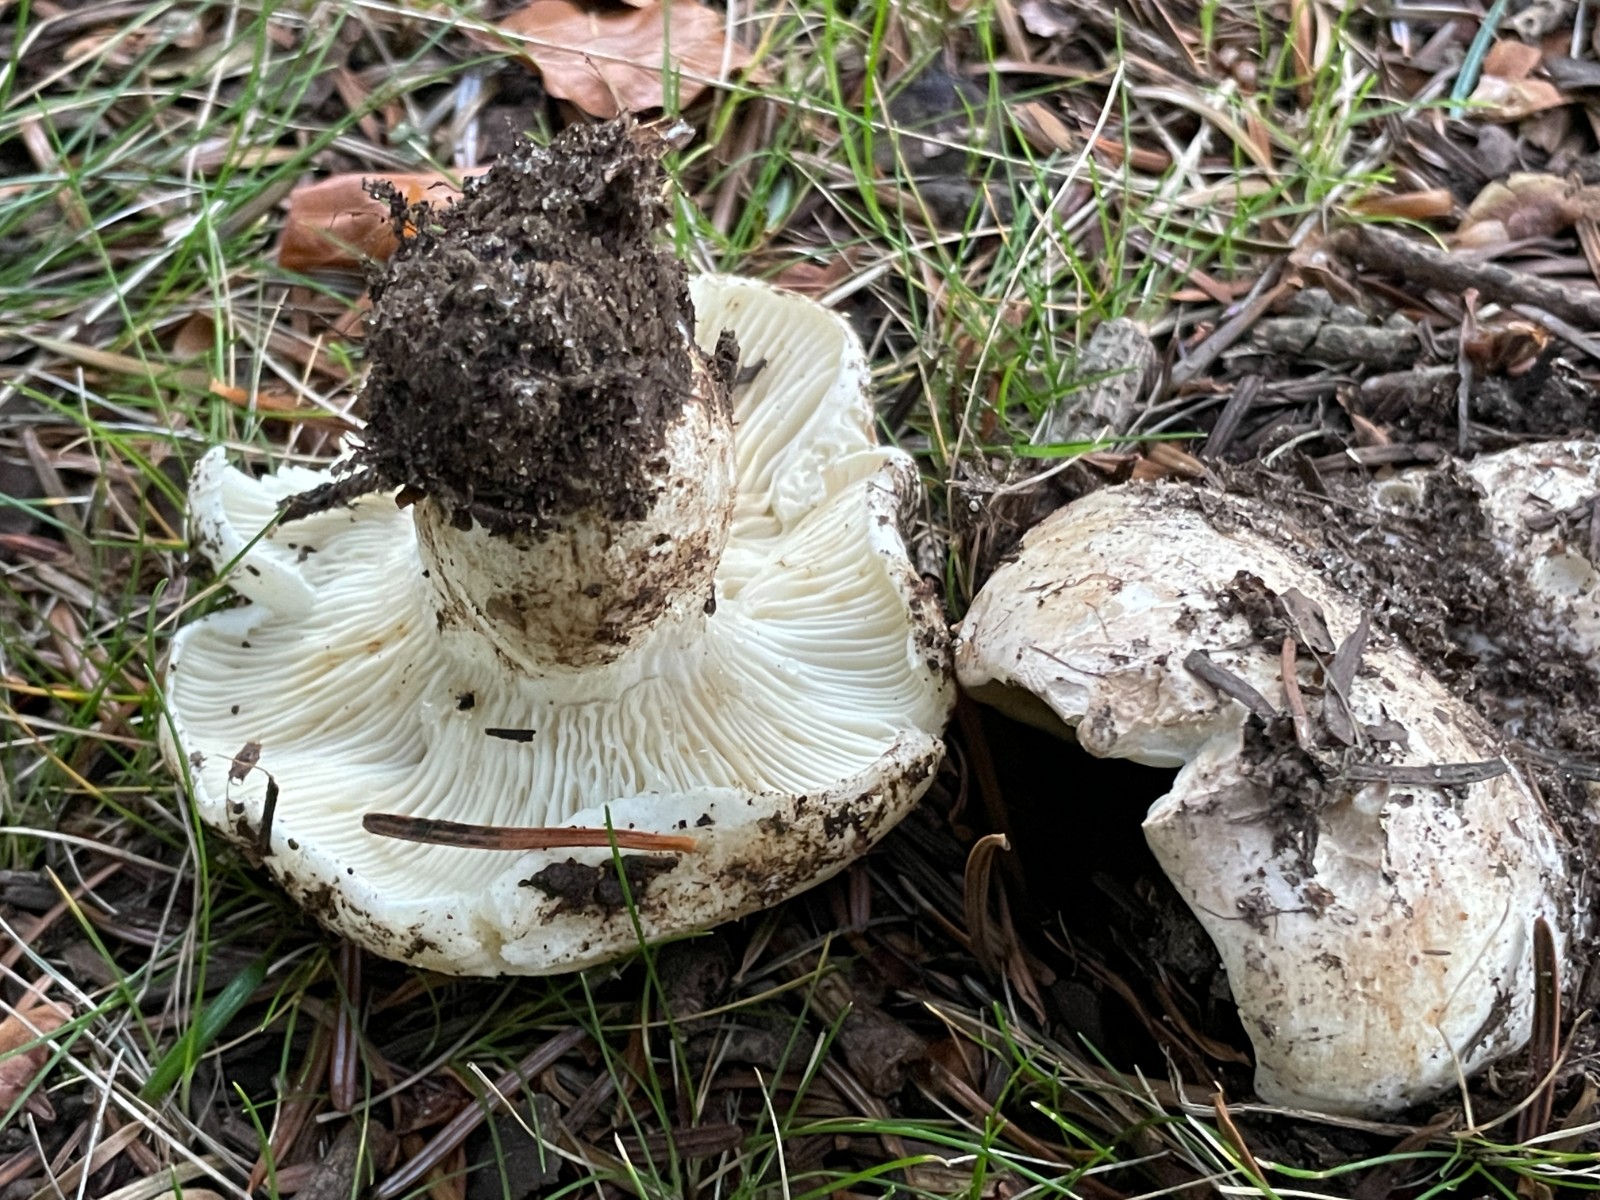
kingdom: Fungi
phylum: Basidiomycota
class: Agaricomycetes
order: Russulales
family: Russulaceae
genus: Russula
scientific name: Russula delica
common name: almindelig tragt-skørhat
